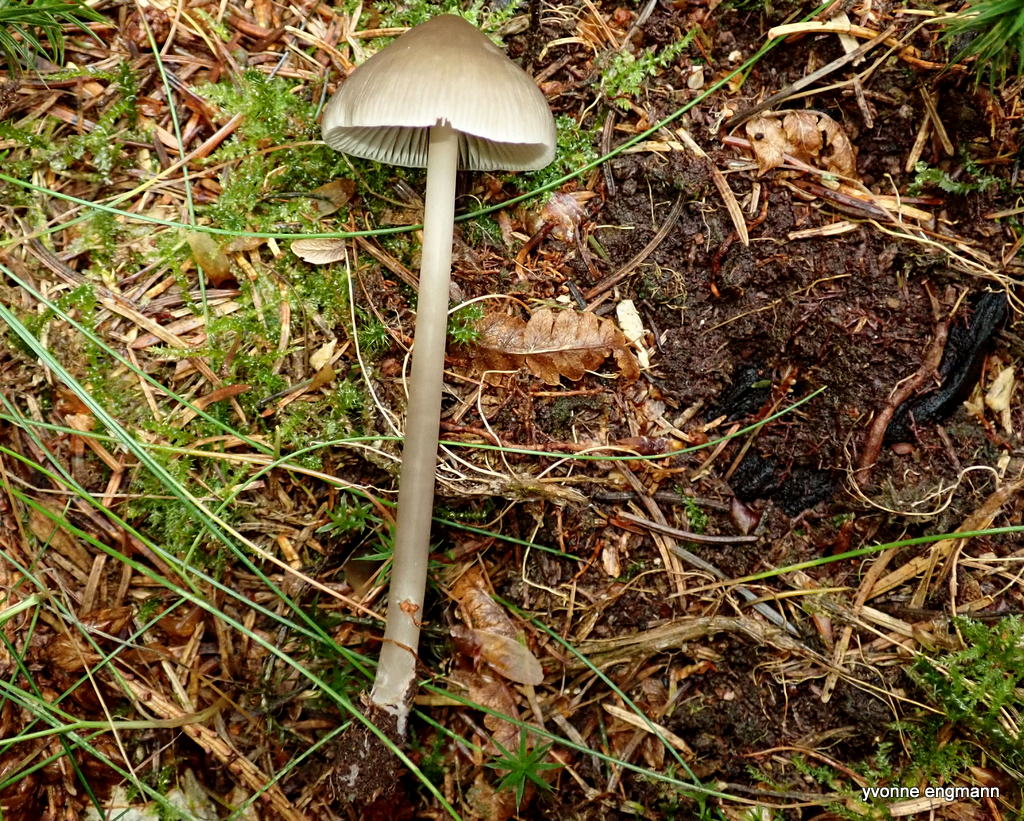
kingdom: Fungi
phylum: Basidiomycota
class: Agaricomycetes
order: Agaricales
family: Mycenaceae
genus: Mycena
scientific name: Mycena galericulata
